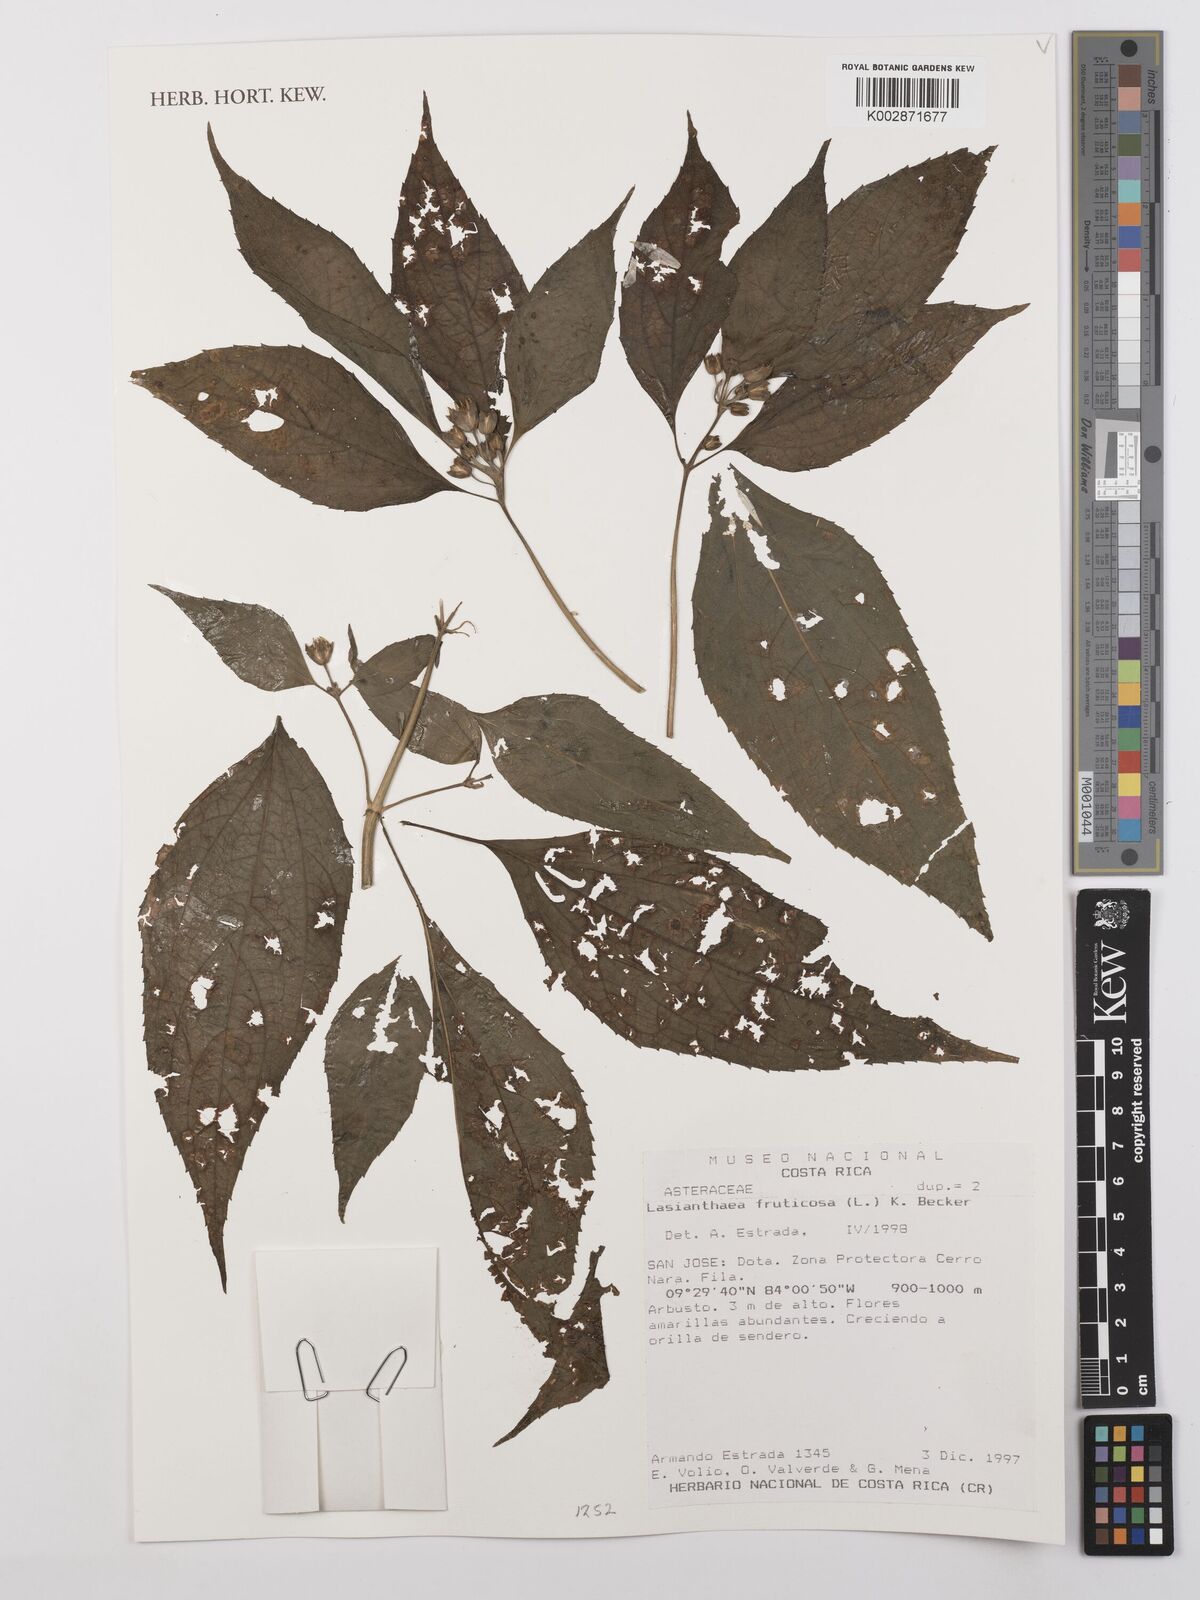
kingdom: Plantae
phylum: Tracheophyta
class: Magnoliopsida
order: Asterales
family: Asteraceae
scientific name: Asteraceae
